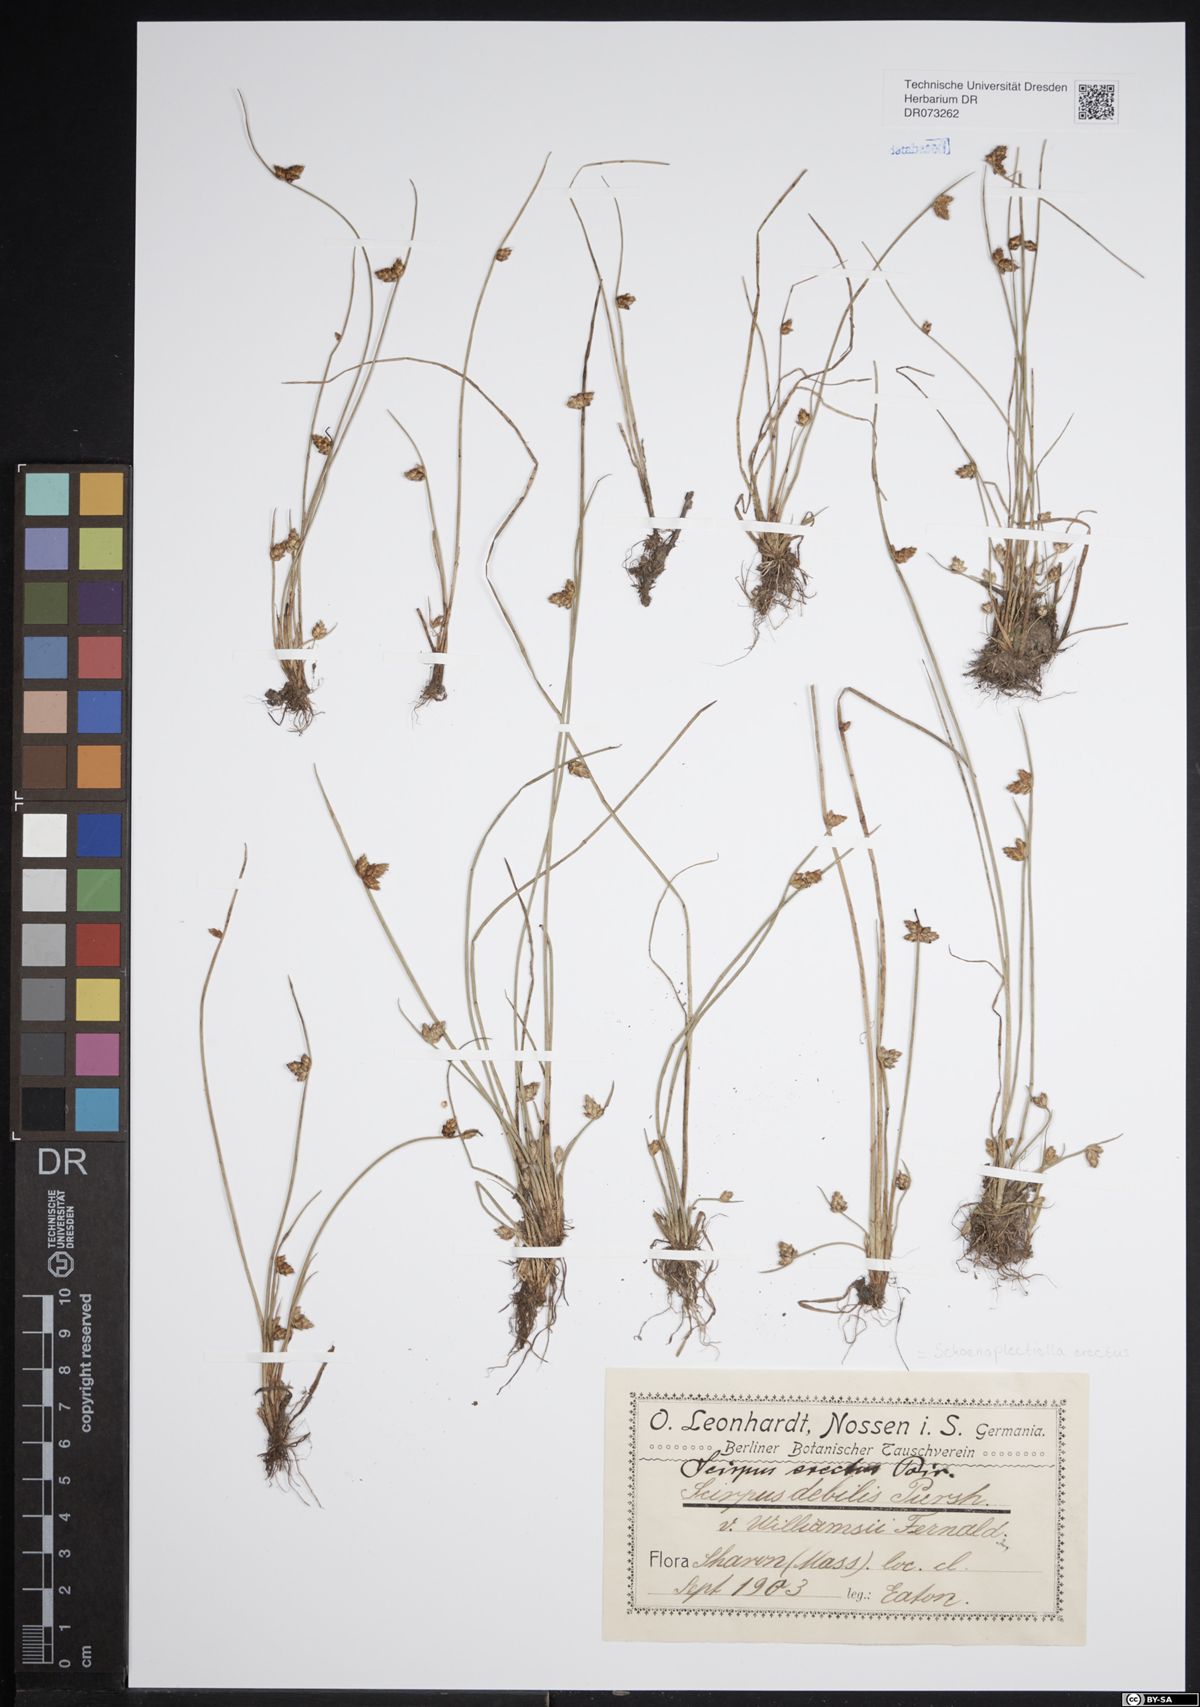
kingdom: Plantae
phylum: Tracheophyta
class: Liliopsida
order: Poales
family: Cyperaceae
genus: Schoenoplectiella
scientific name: Schoenoplectiella erecta
